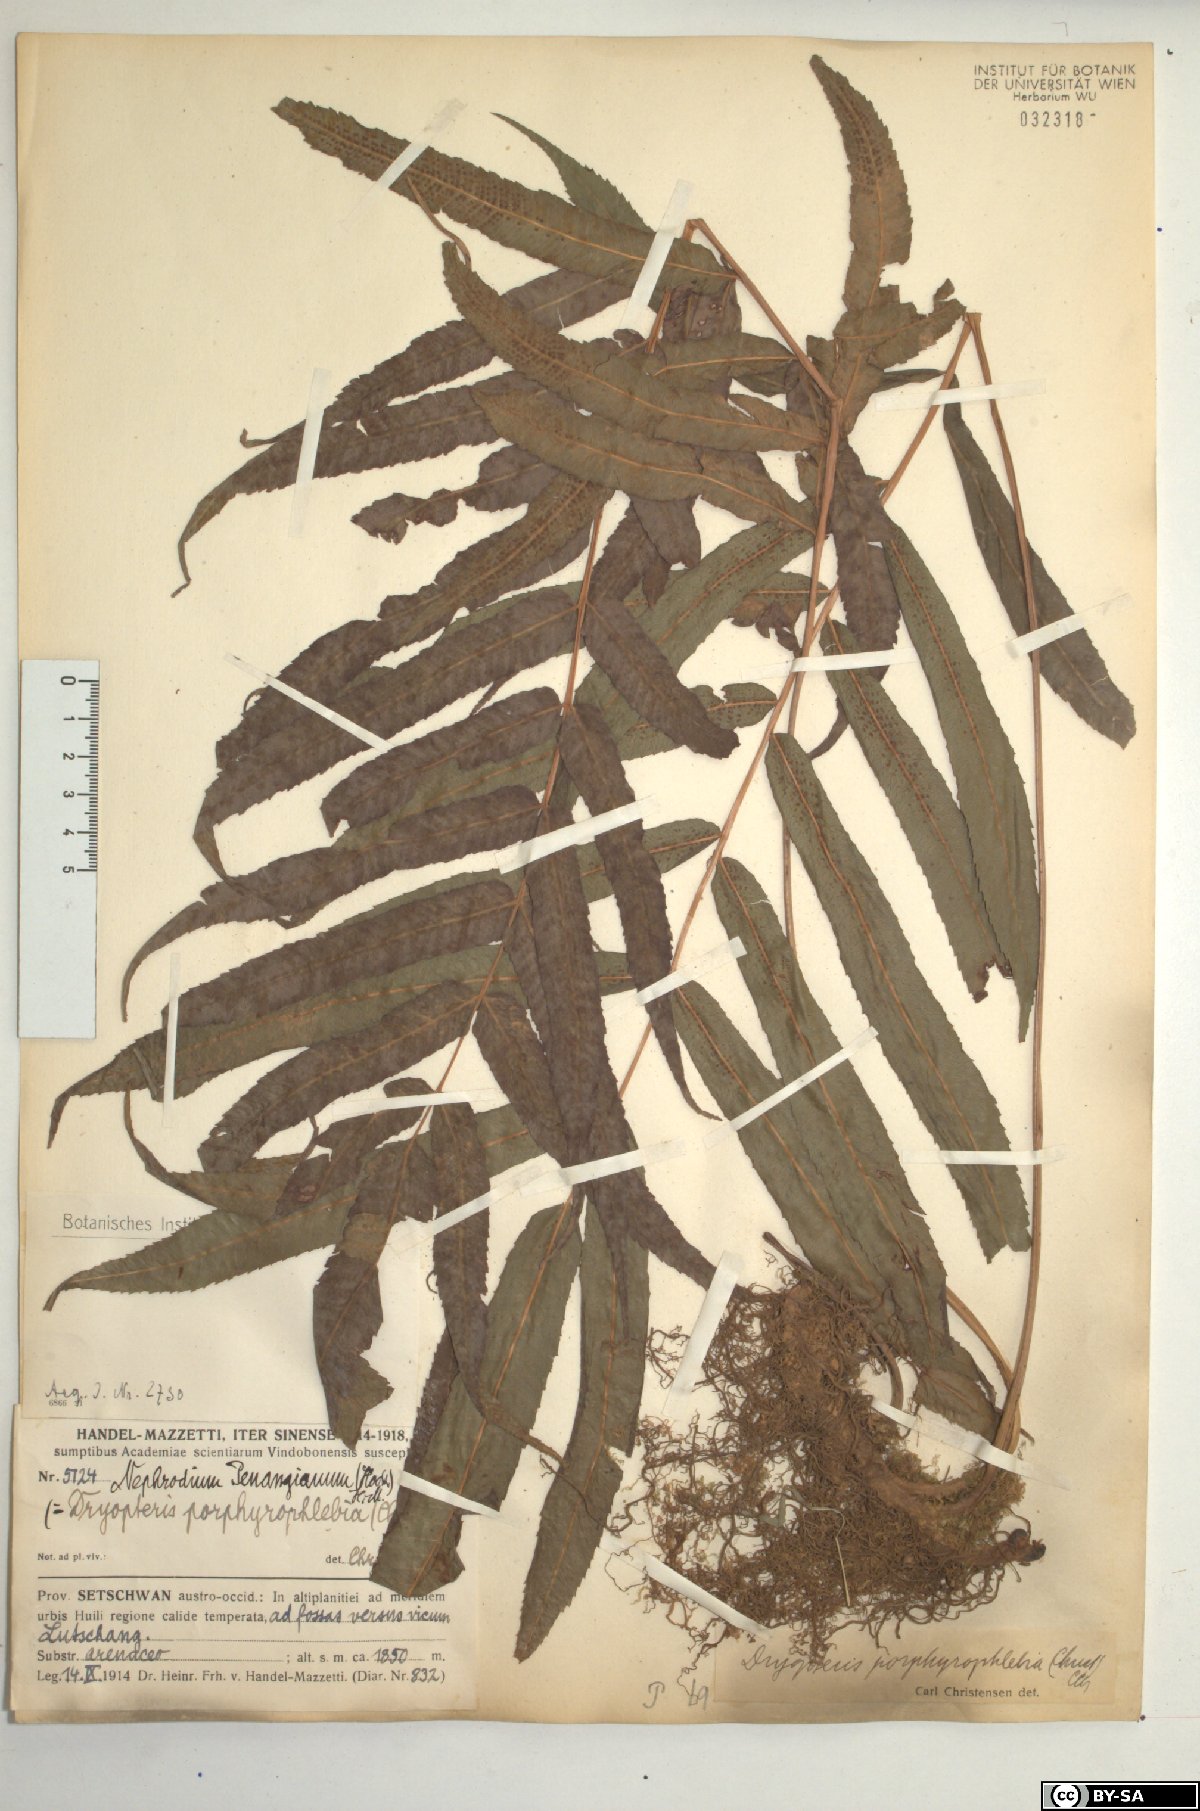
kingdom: Plantae
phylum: Tracheophyta
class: Polypodiopsida
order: Polypodiales
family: Thelypteridaceae
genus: Menisciopsis
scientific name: Menisciopsis penangiana
